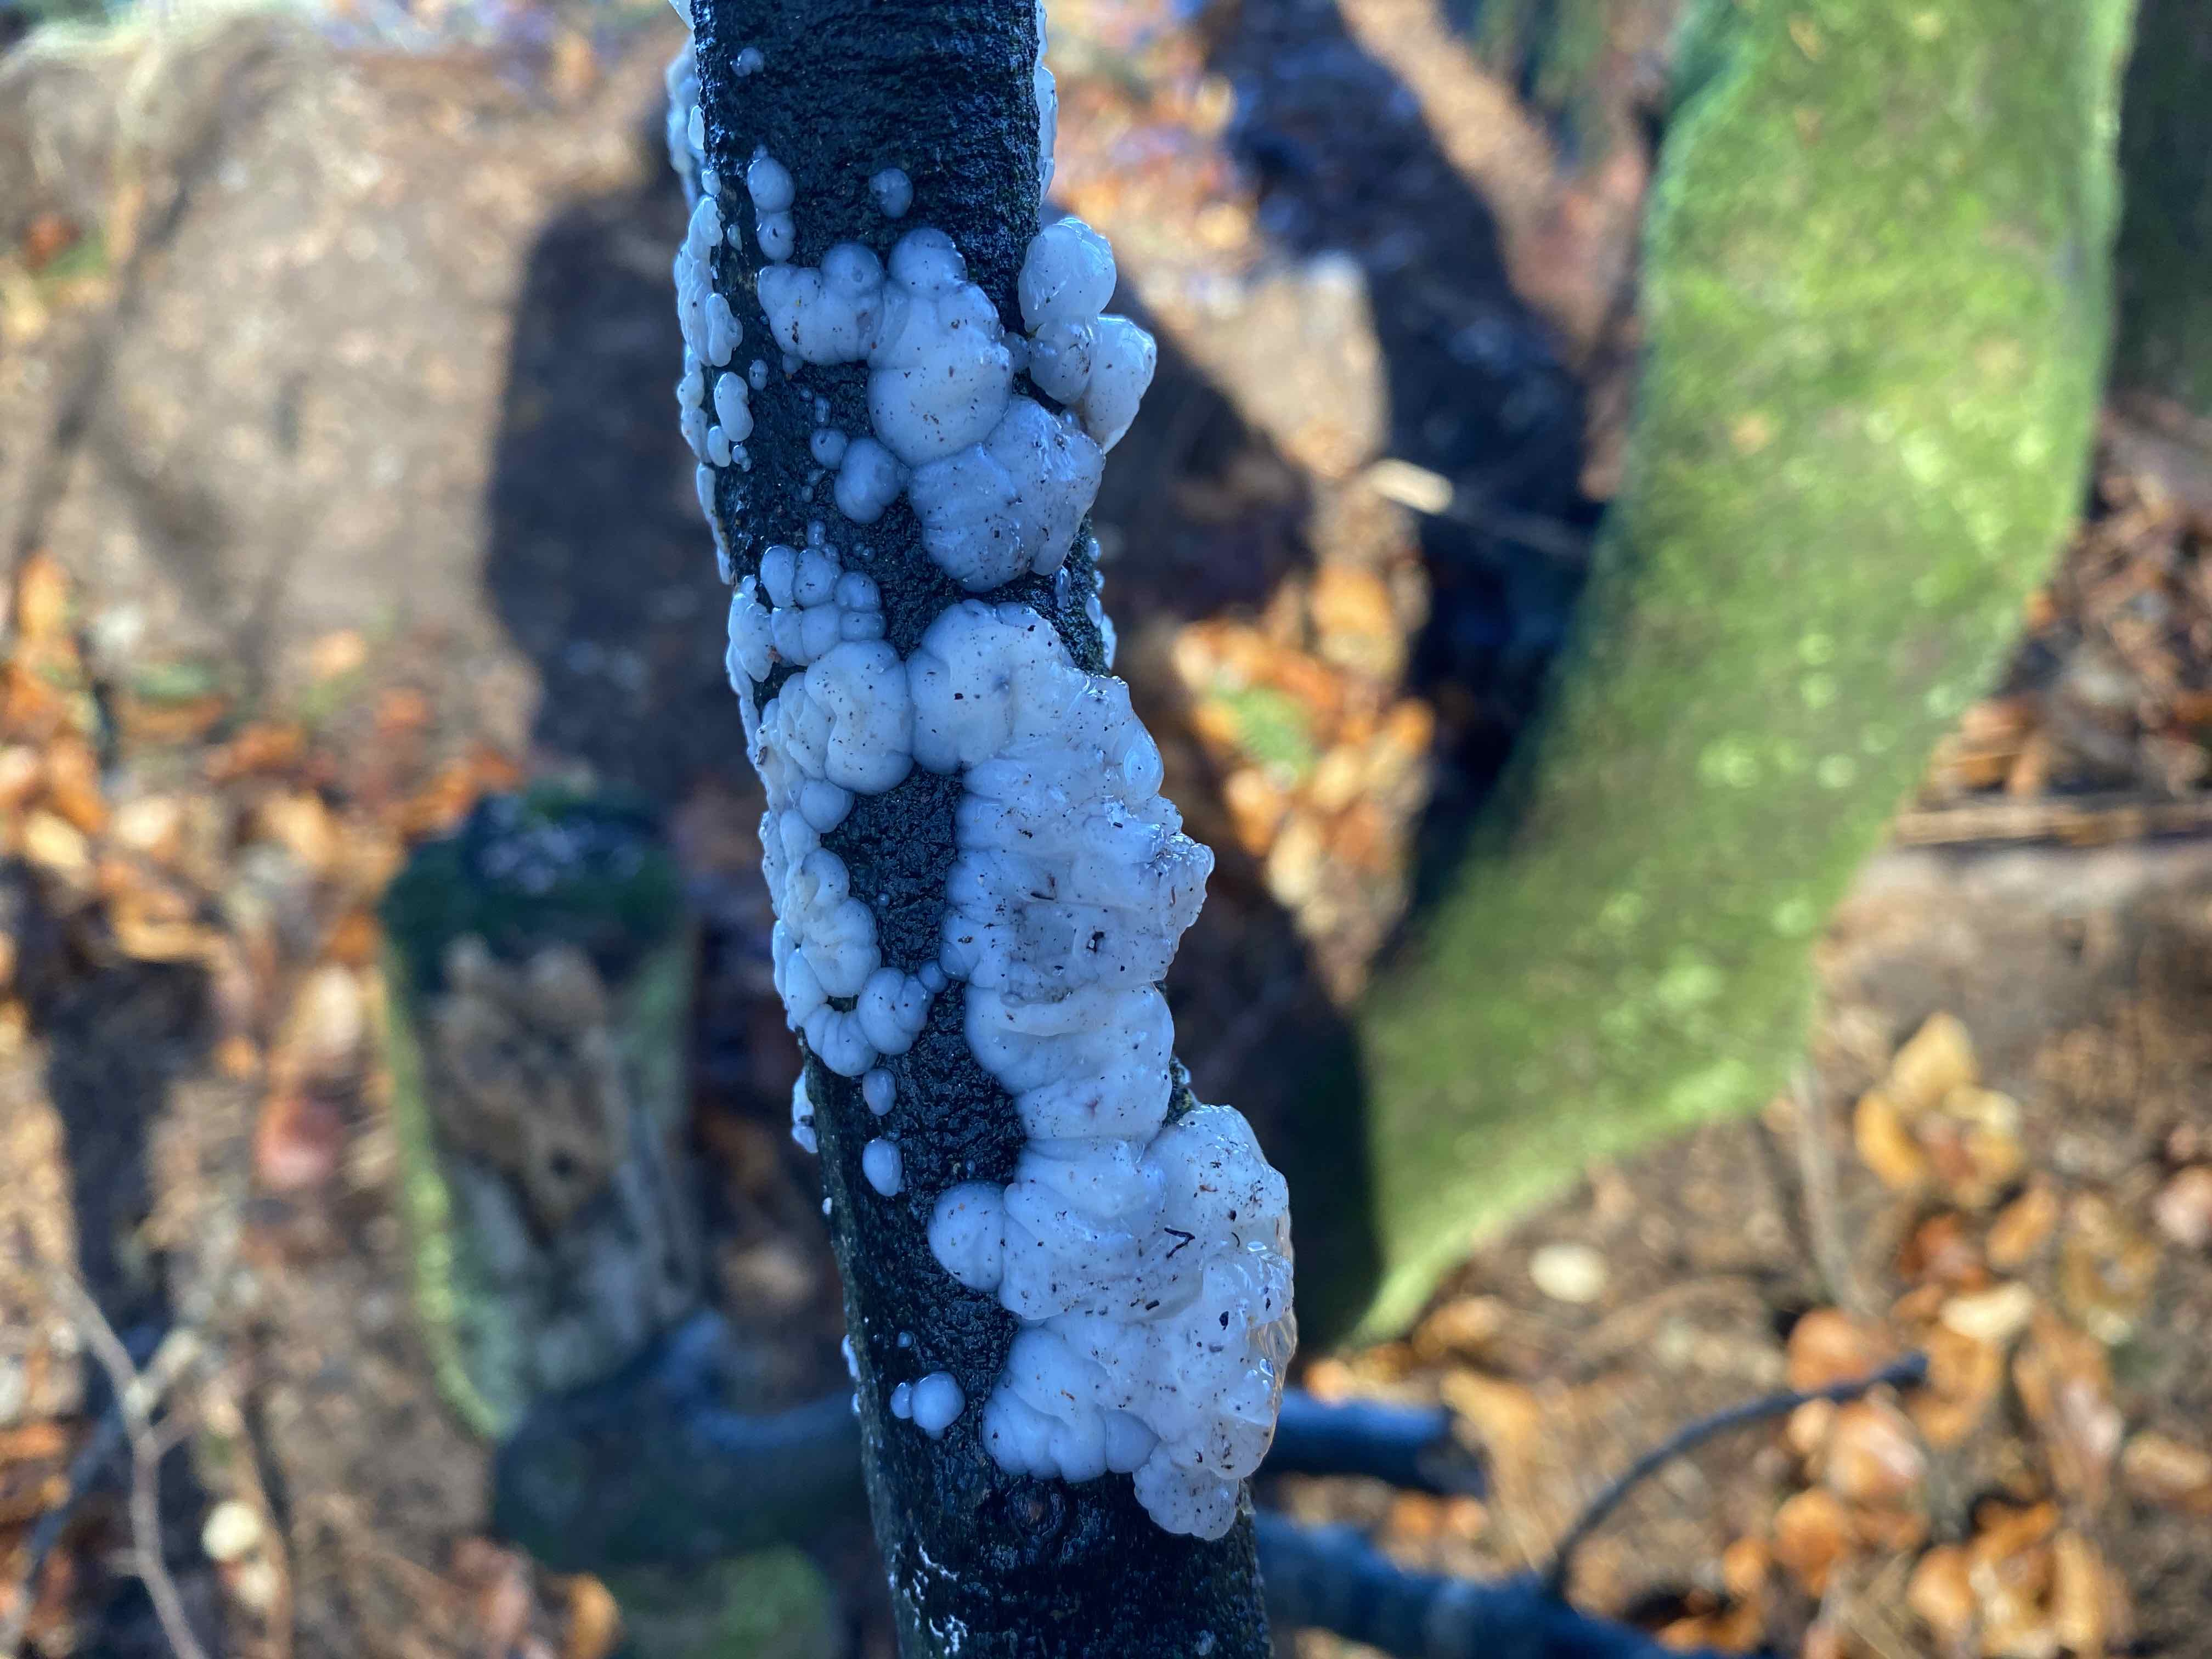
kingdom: Fungi
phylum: Basidiomycota
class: Agaricomycetes
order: Auriculariales
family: Auriculariaceae
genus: Exidia
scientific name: Exidia thuretiana
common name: hvidlig bævretop
